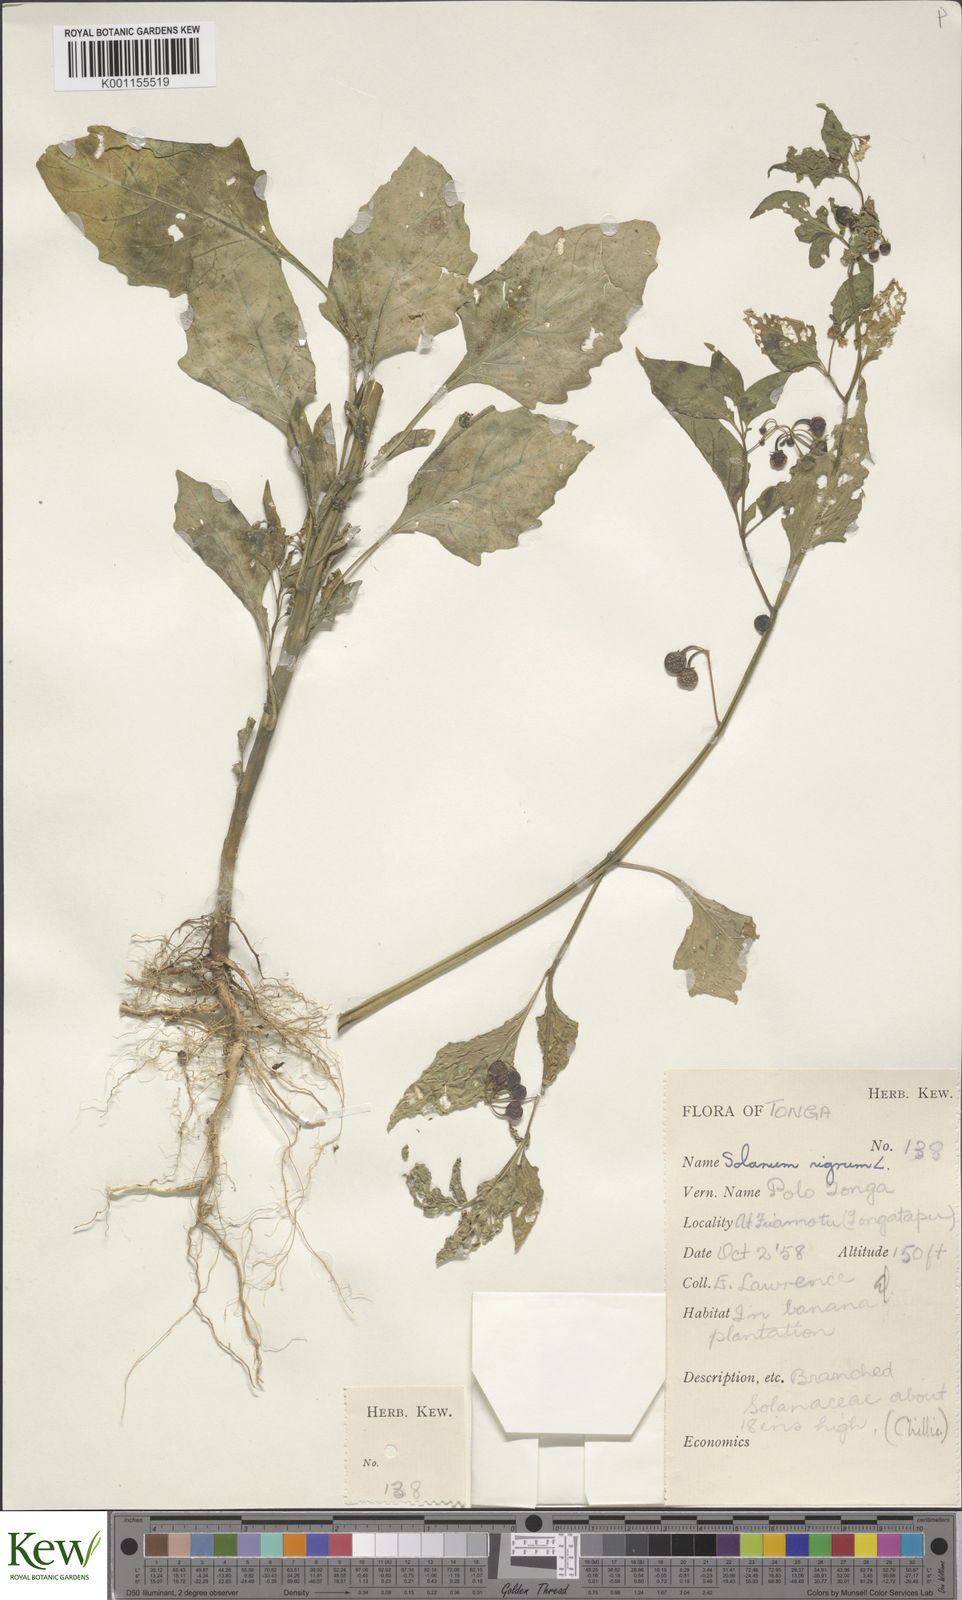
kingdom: Plantae
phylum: Tracheophyta
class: Magnoliopsida
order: Solanales
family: Solanaceae
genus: Solanum
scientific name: Solanum americanum
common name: American black nightshade
